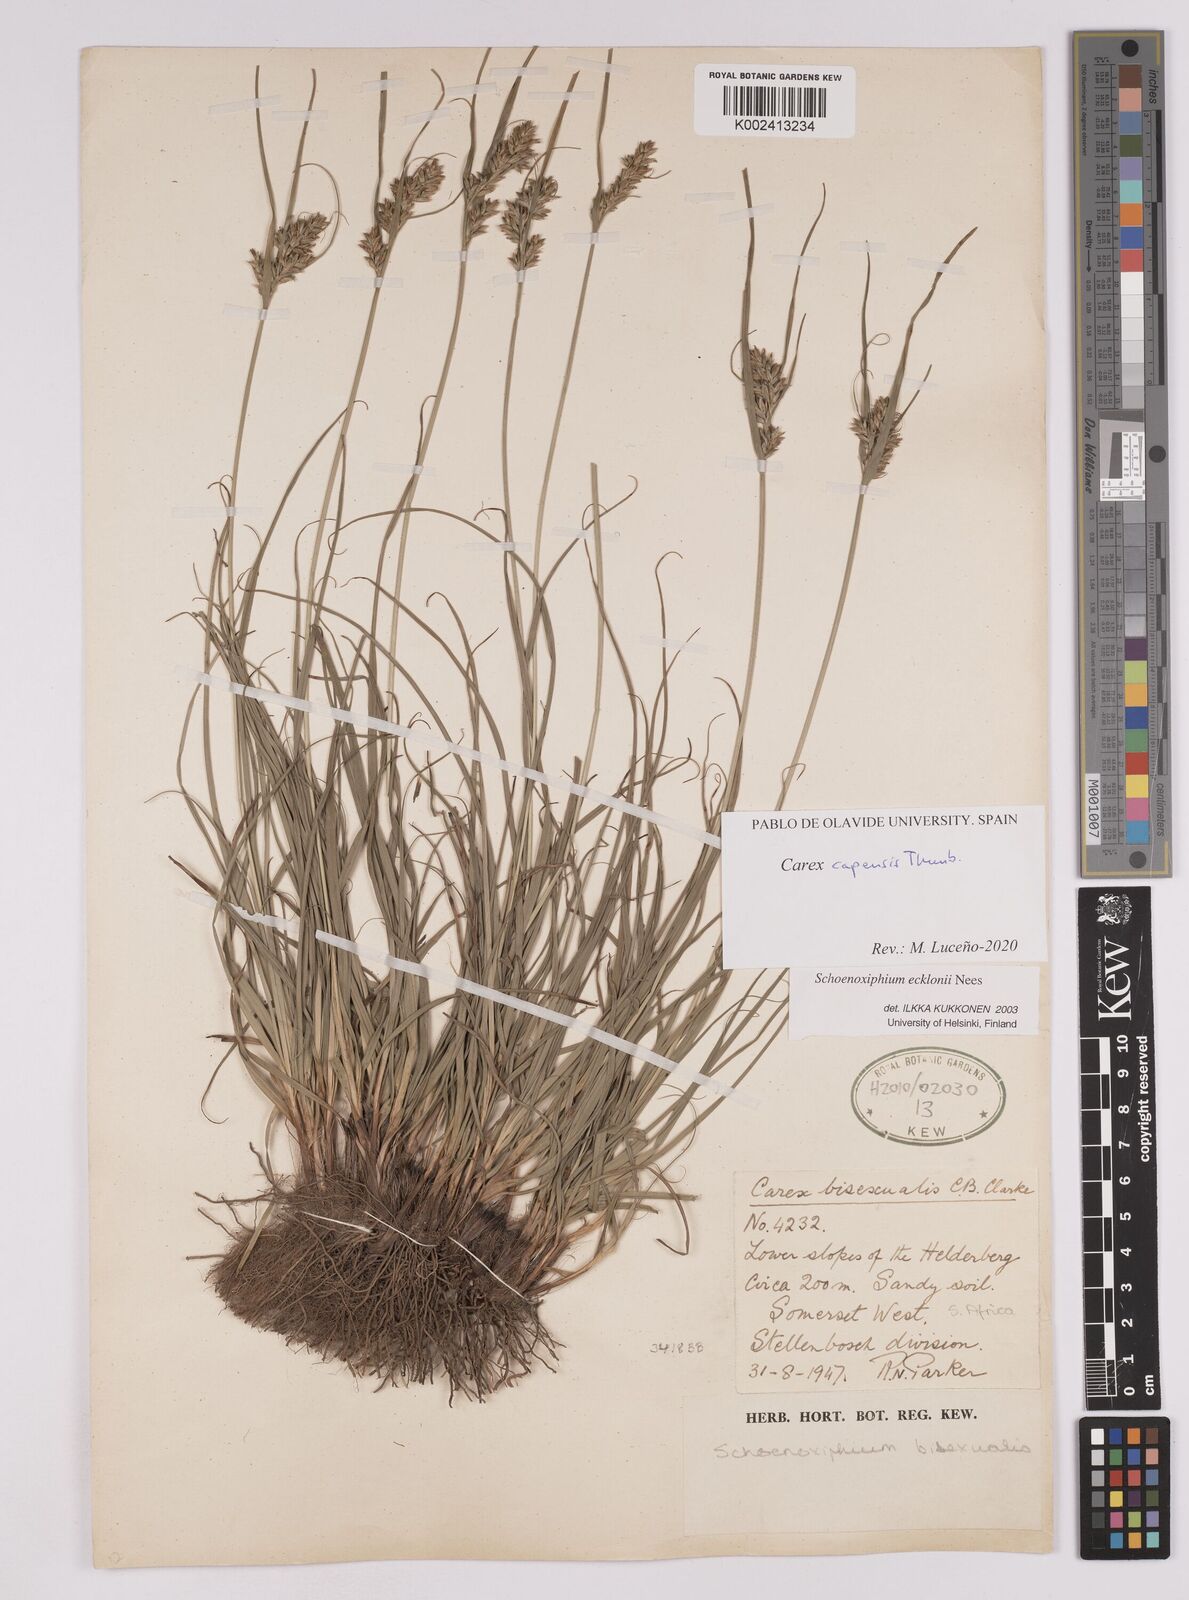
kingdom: Plantae
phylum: Tracheophyta
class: Liliopsida
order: Poales
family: Cyperaceae
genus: Carex
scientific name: Carex capensis
